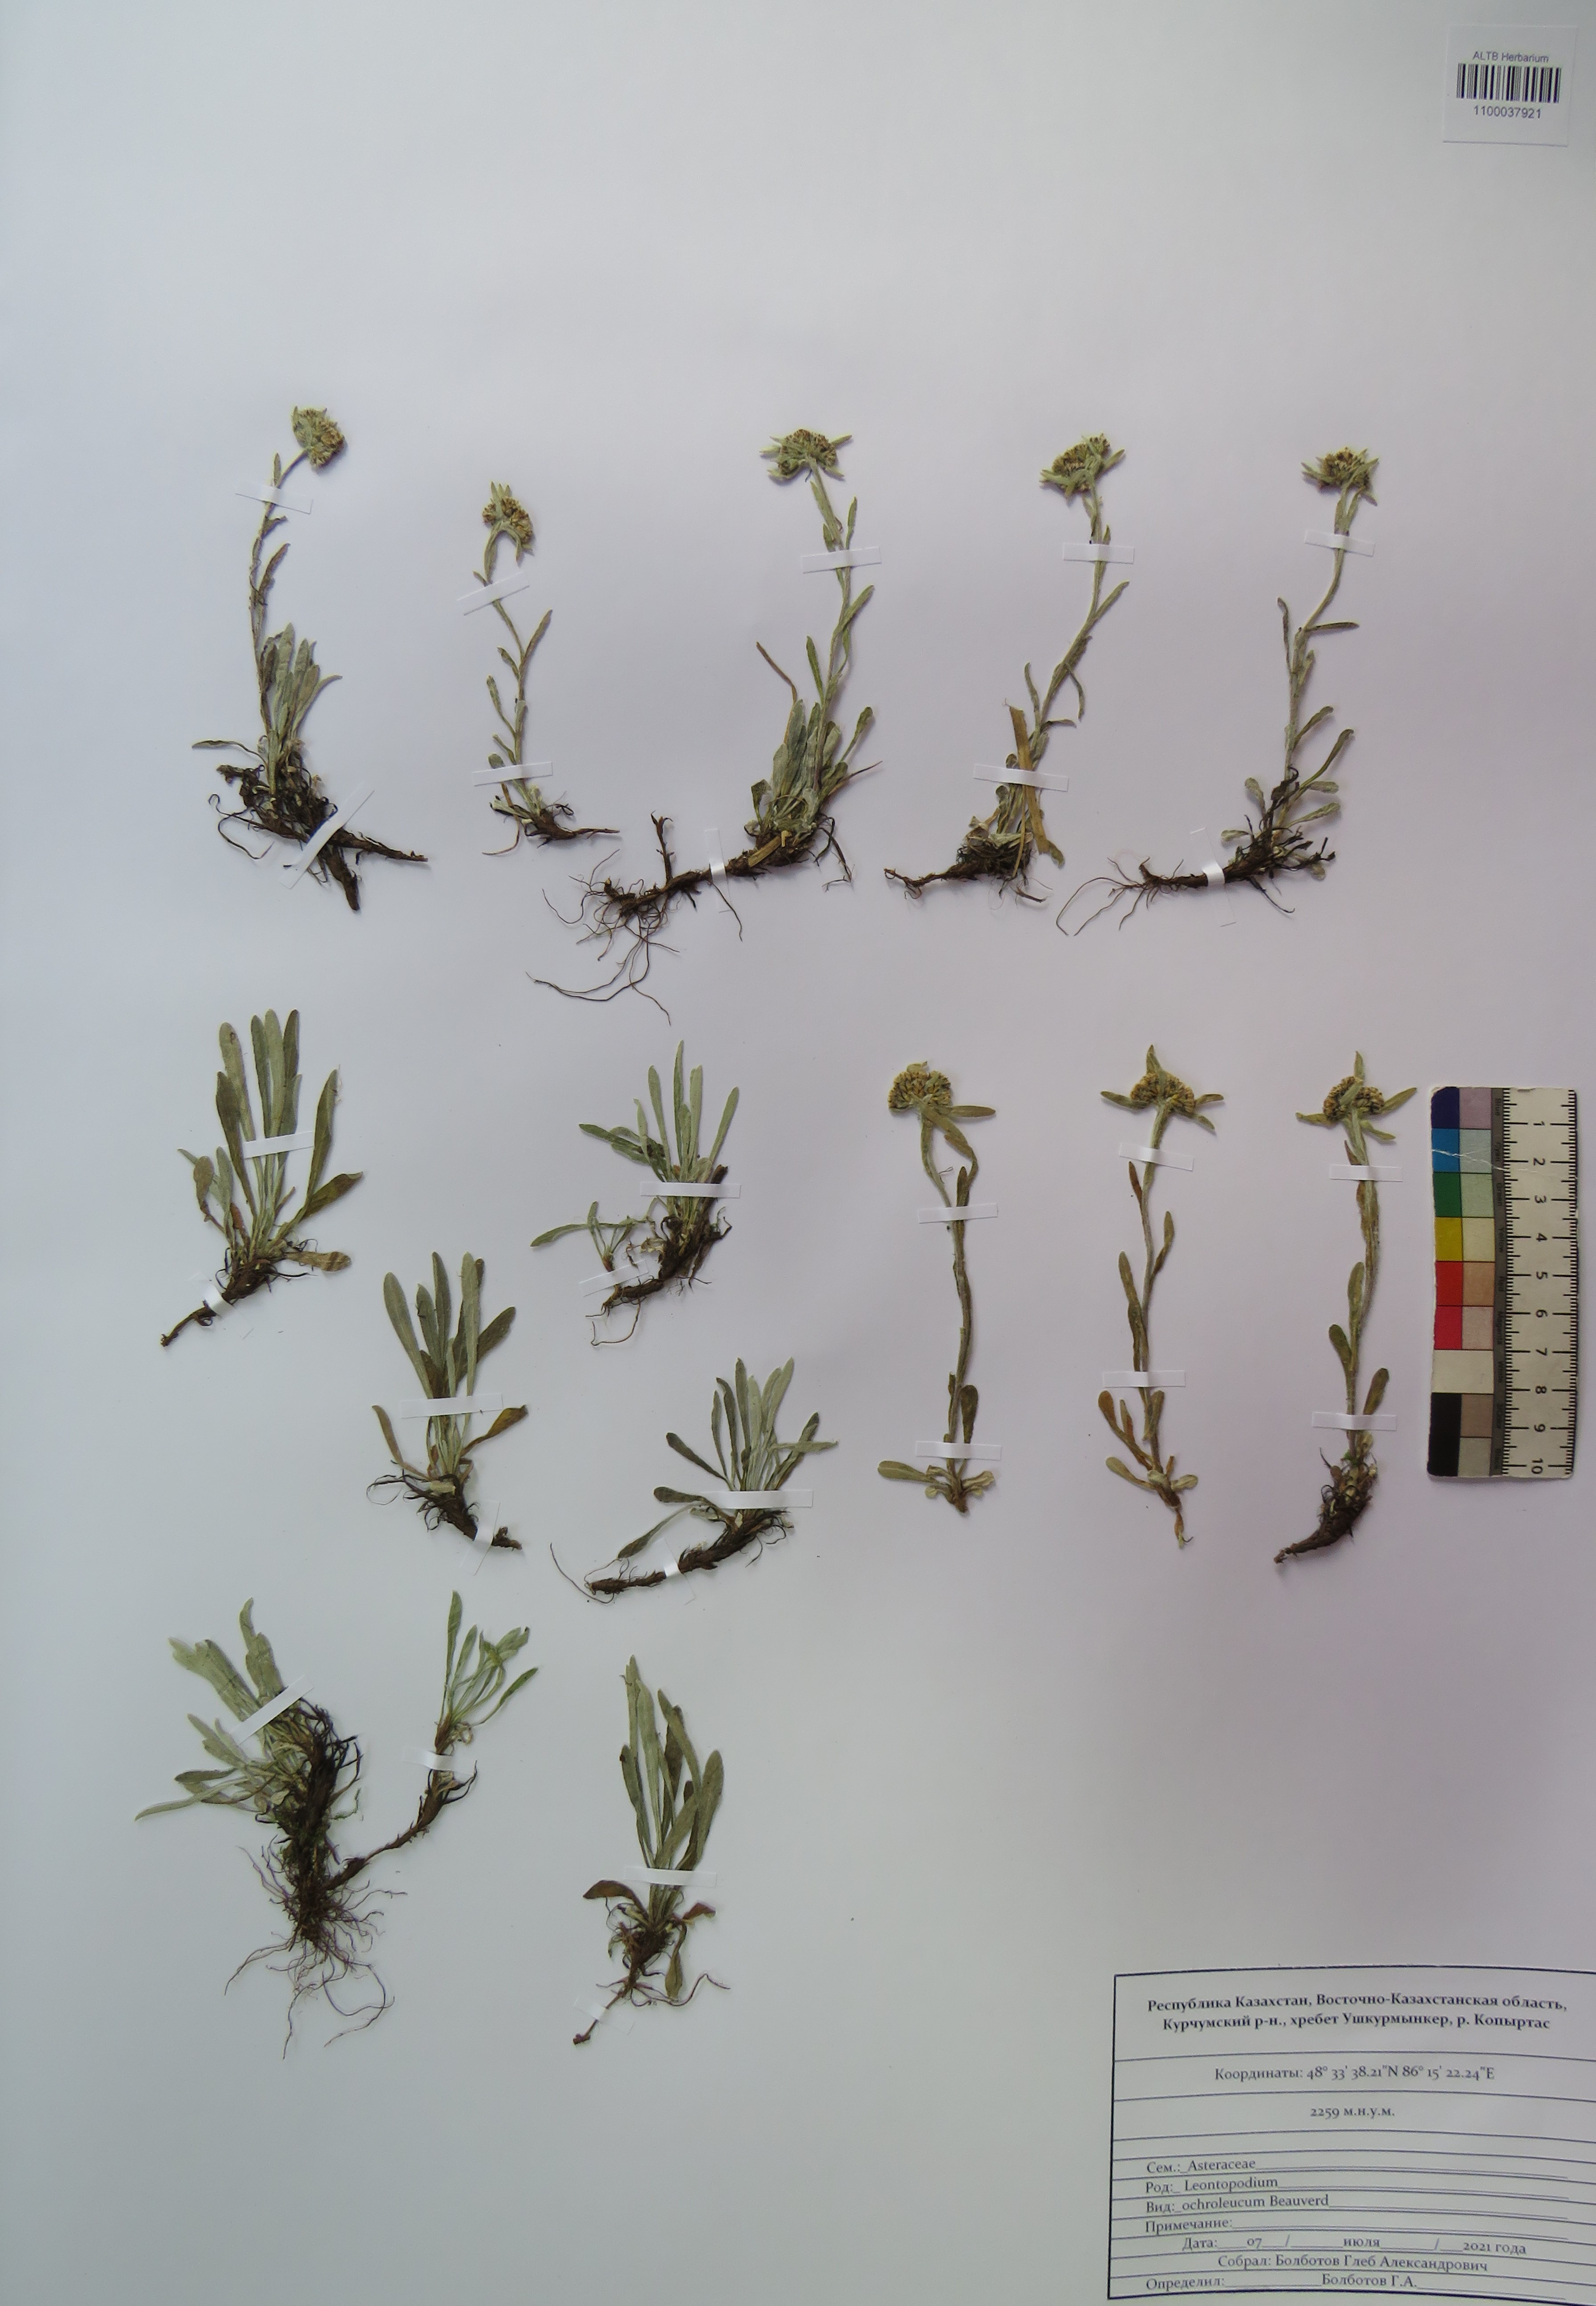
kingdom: Plantae
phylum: Tracheophyta
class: Magnoliopsida
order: Asterales
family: Asteraceae
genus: Leontopodium
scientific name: Leontopodium leontopodinum
